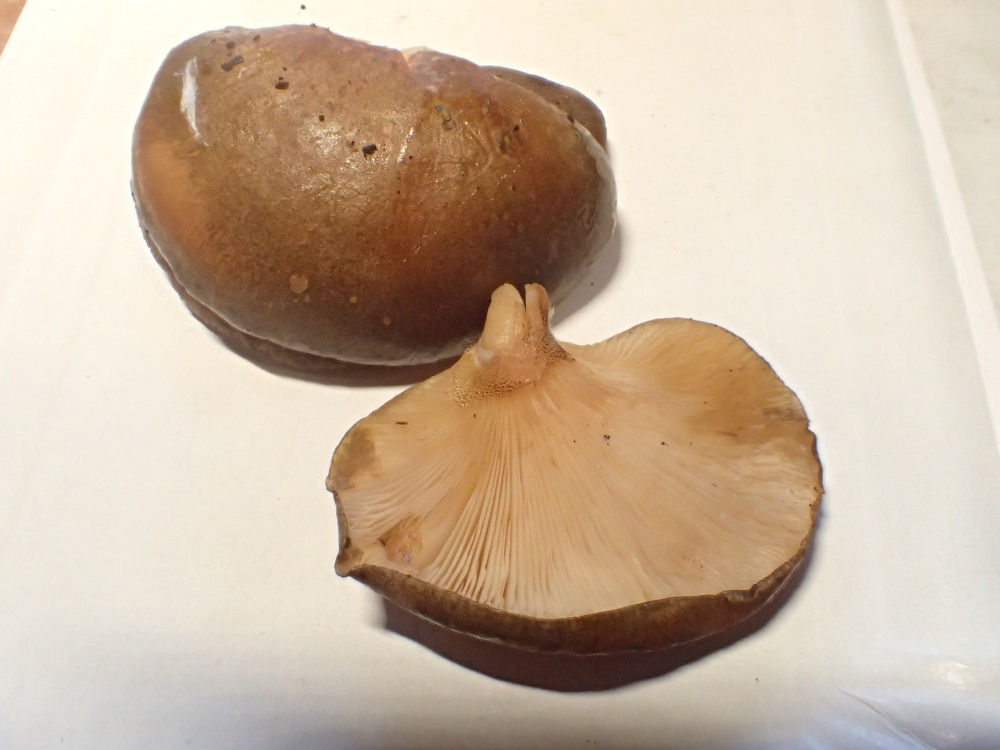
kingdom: Fungi
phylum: Basidiomycota
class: Agaricomycetes
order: Agaricales
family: Sarcomyxaceae
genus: Sarcomyxa
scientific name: Sarcomyxa serotina
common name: gummihat
